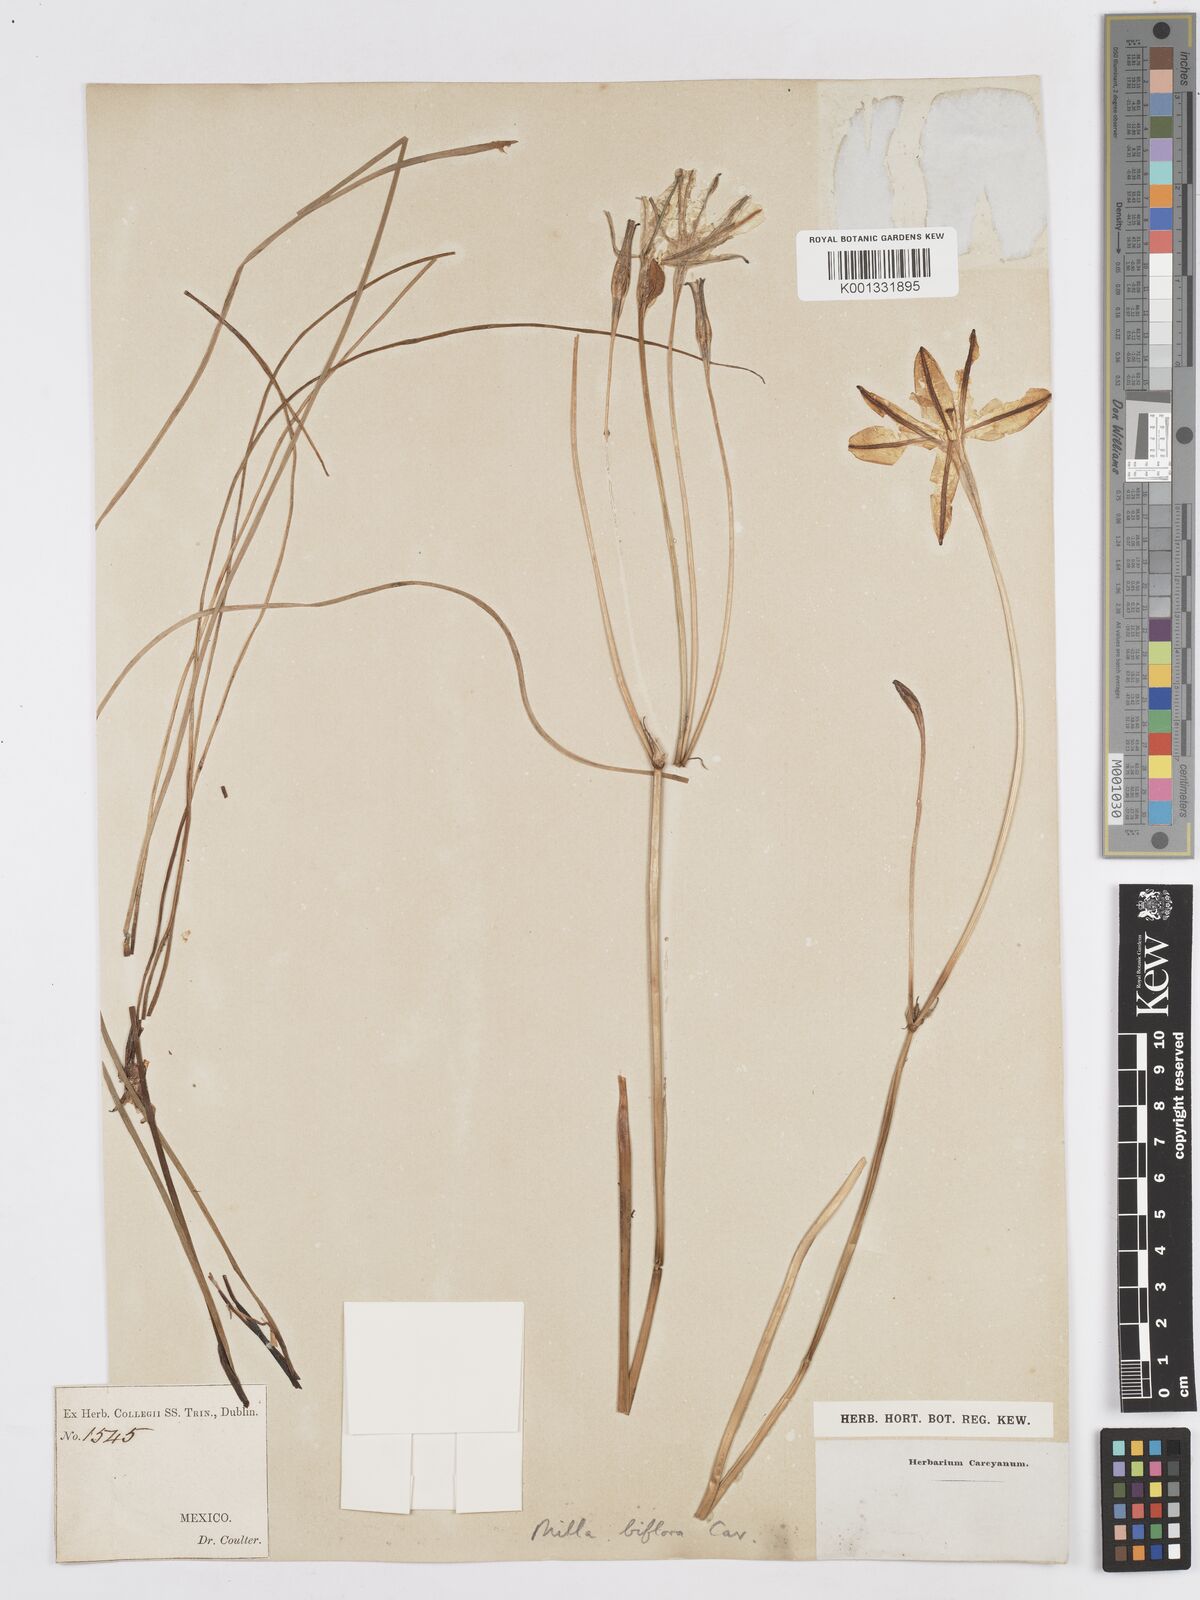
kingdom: Plantae
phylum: Tracheophyta
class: Liliopsida
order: Asparagales
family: Asparagaceae
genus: Milla
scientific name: Milla biflora
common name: Mexican-star
